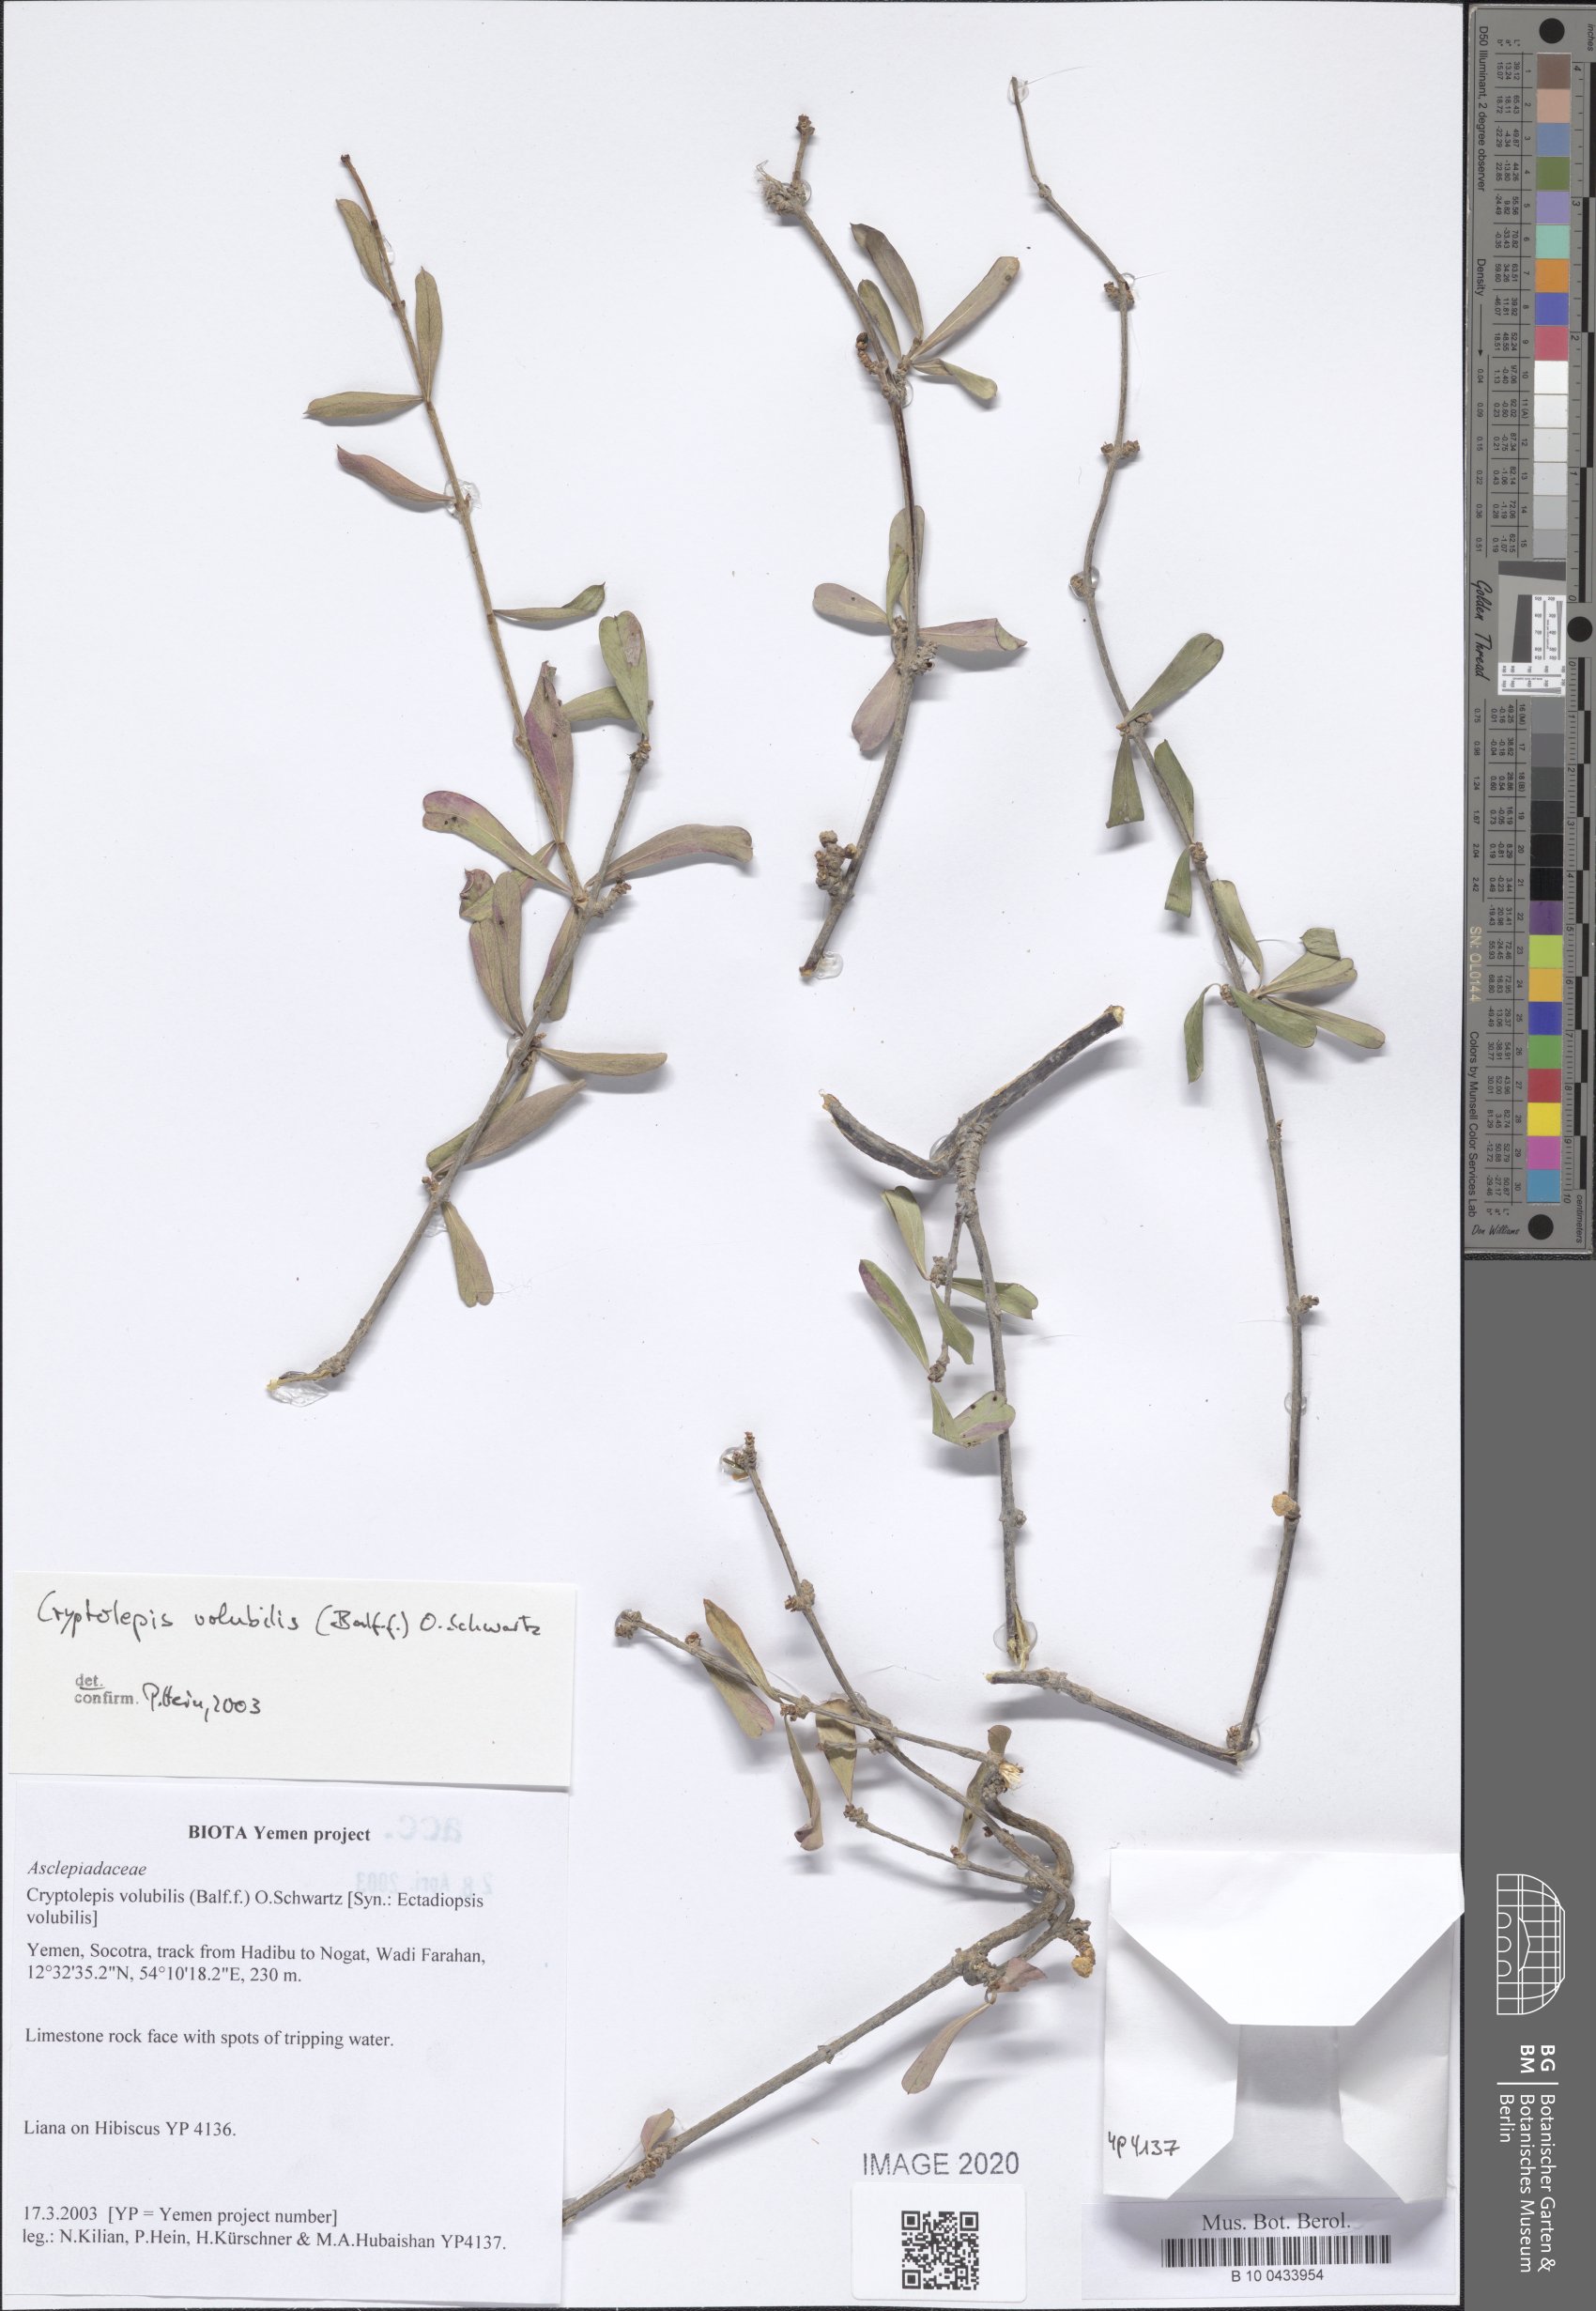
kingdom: Plantae
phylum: Tracheophyta
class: Magnoliopsida
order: Gentianales
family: Apocynaceae
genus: Cryptolepis
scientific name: Cryptolepis volubilis
